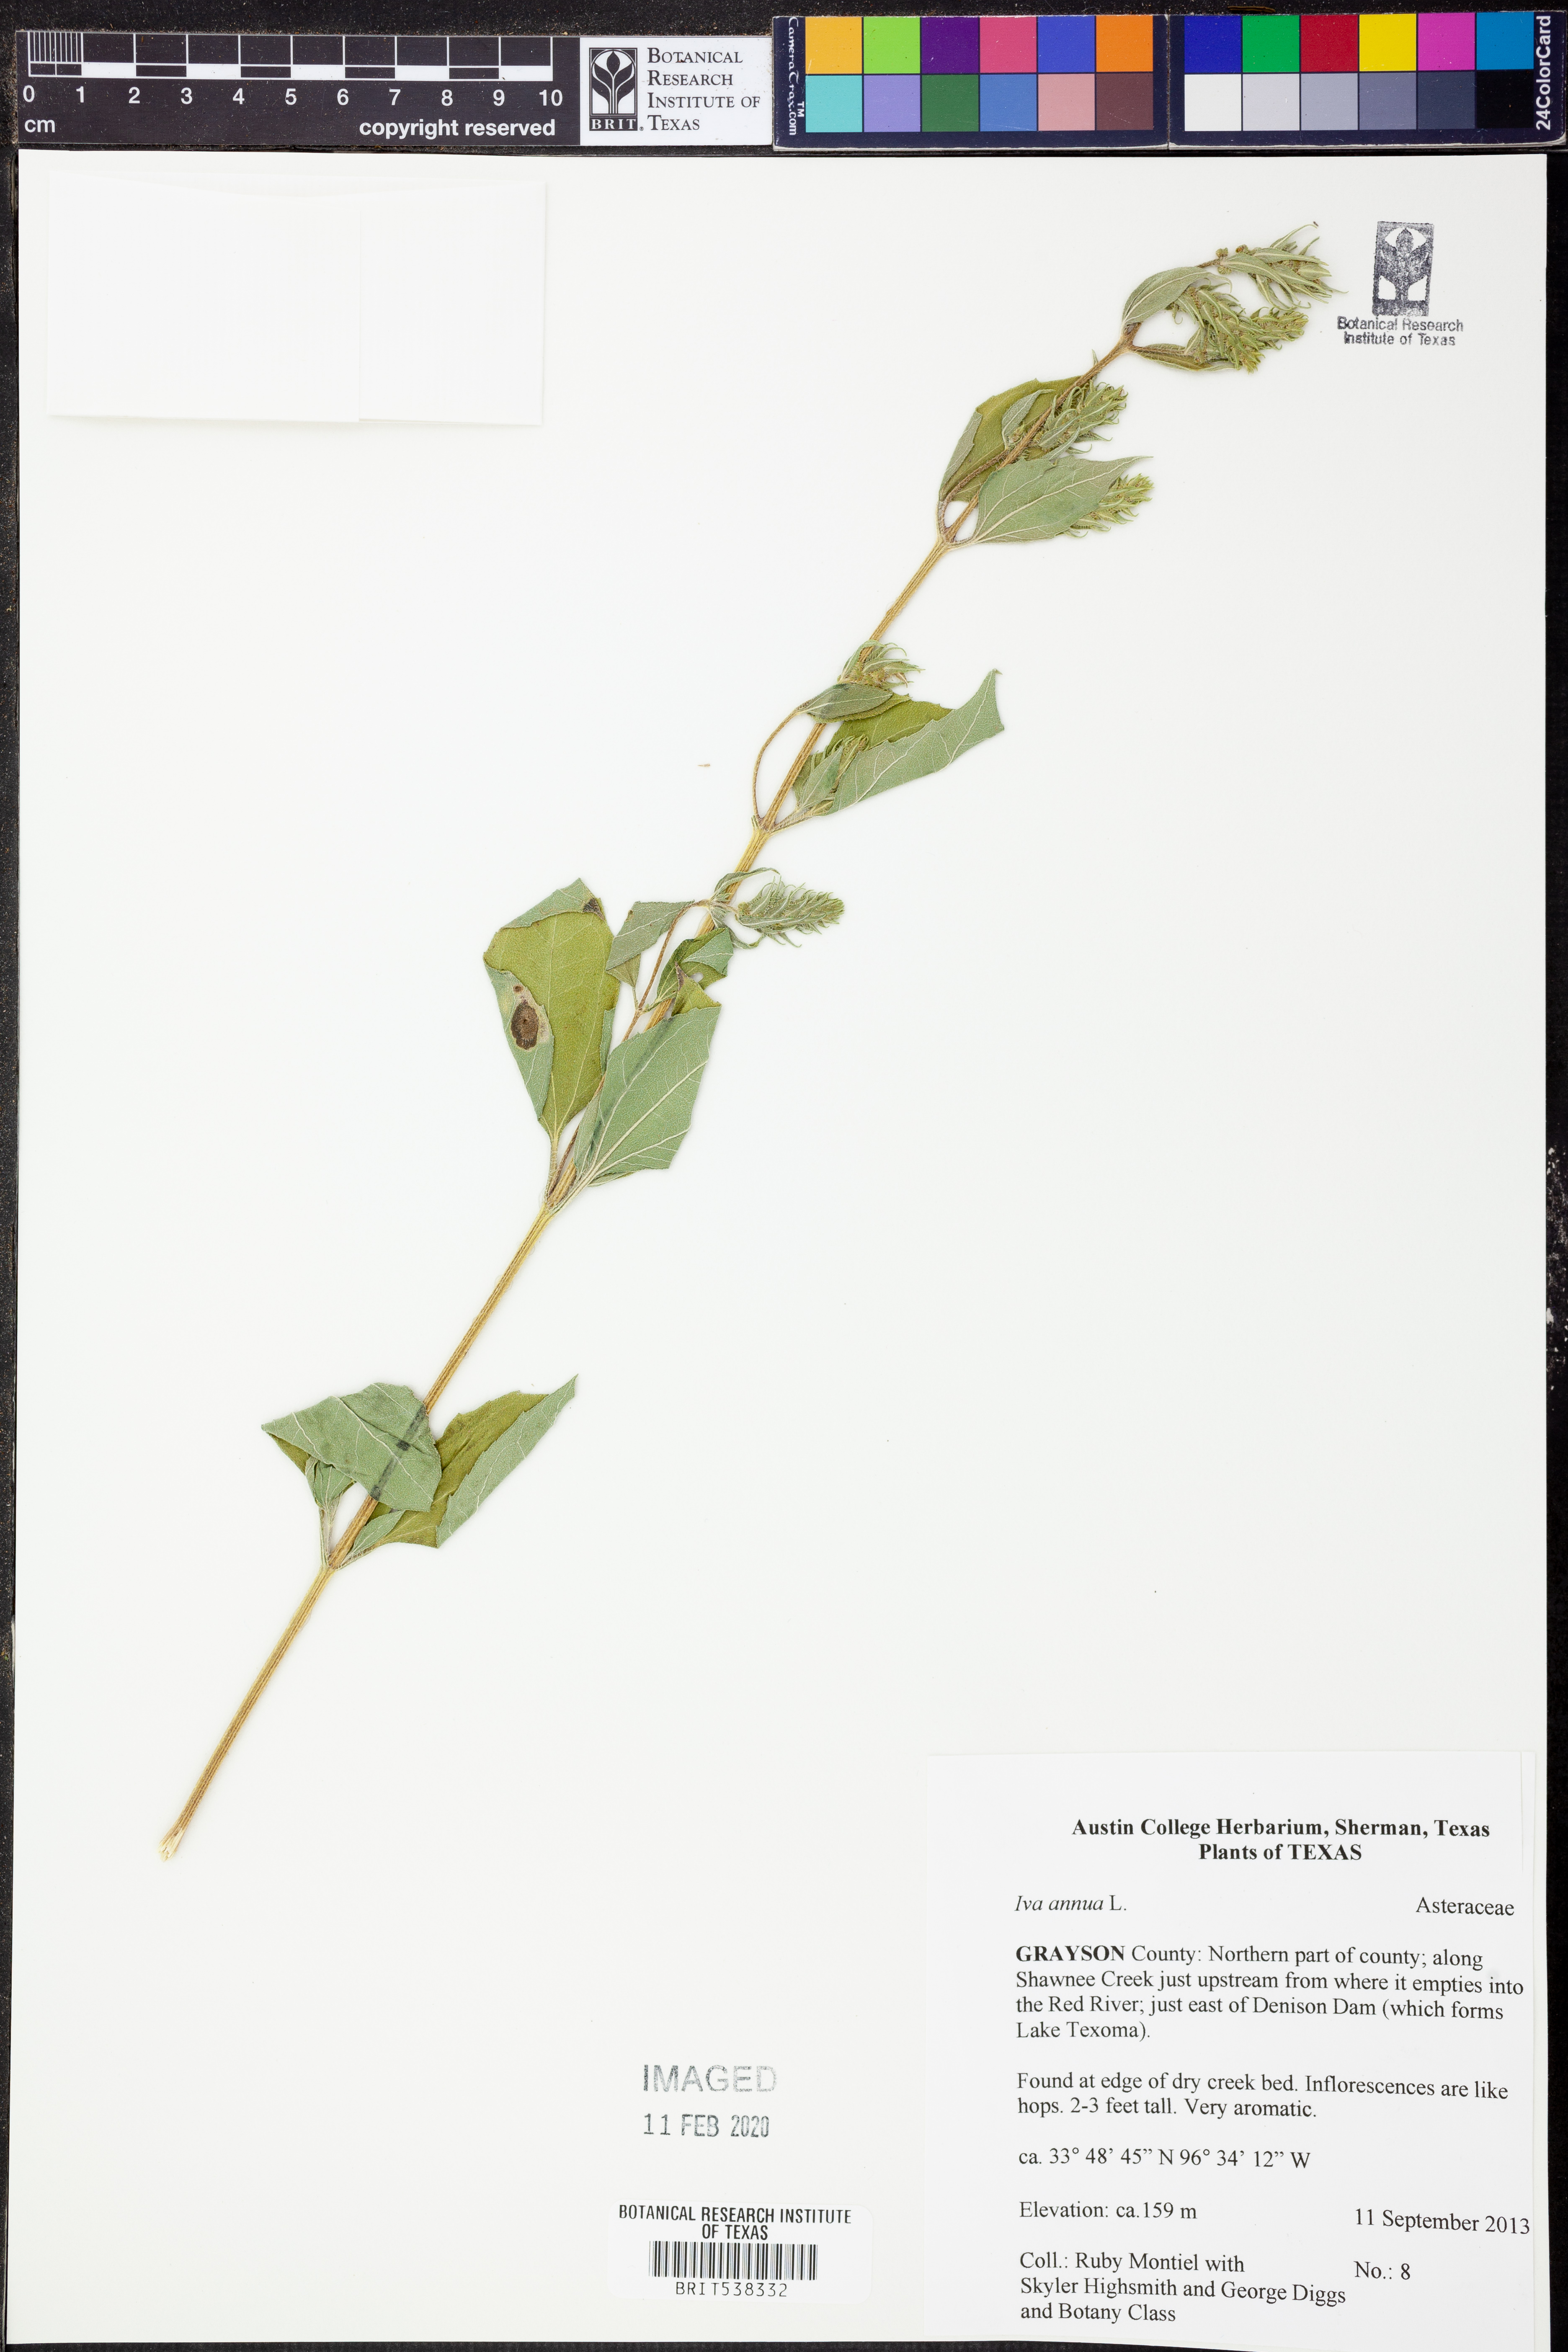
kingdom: Plantae
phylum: Tracheophyta
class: Magnoliopsida
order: Asterales
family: Asteraceae
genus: Iva
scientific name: Iva annua
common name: Marsh-elder
